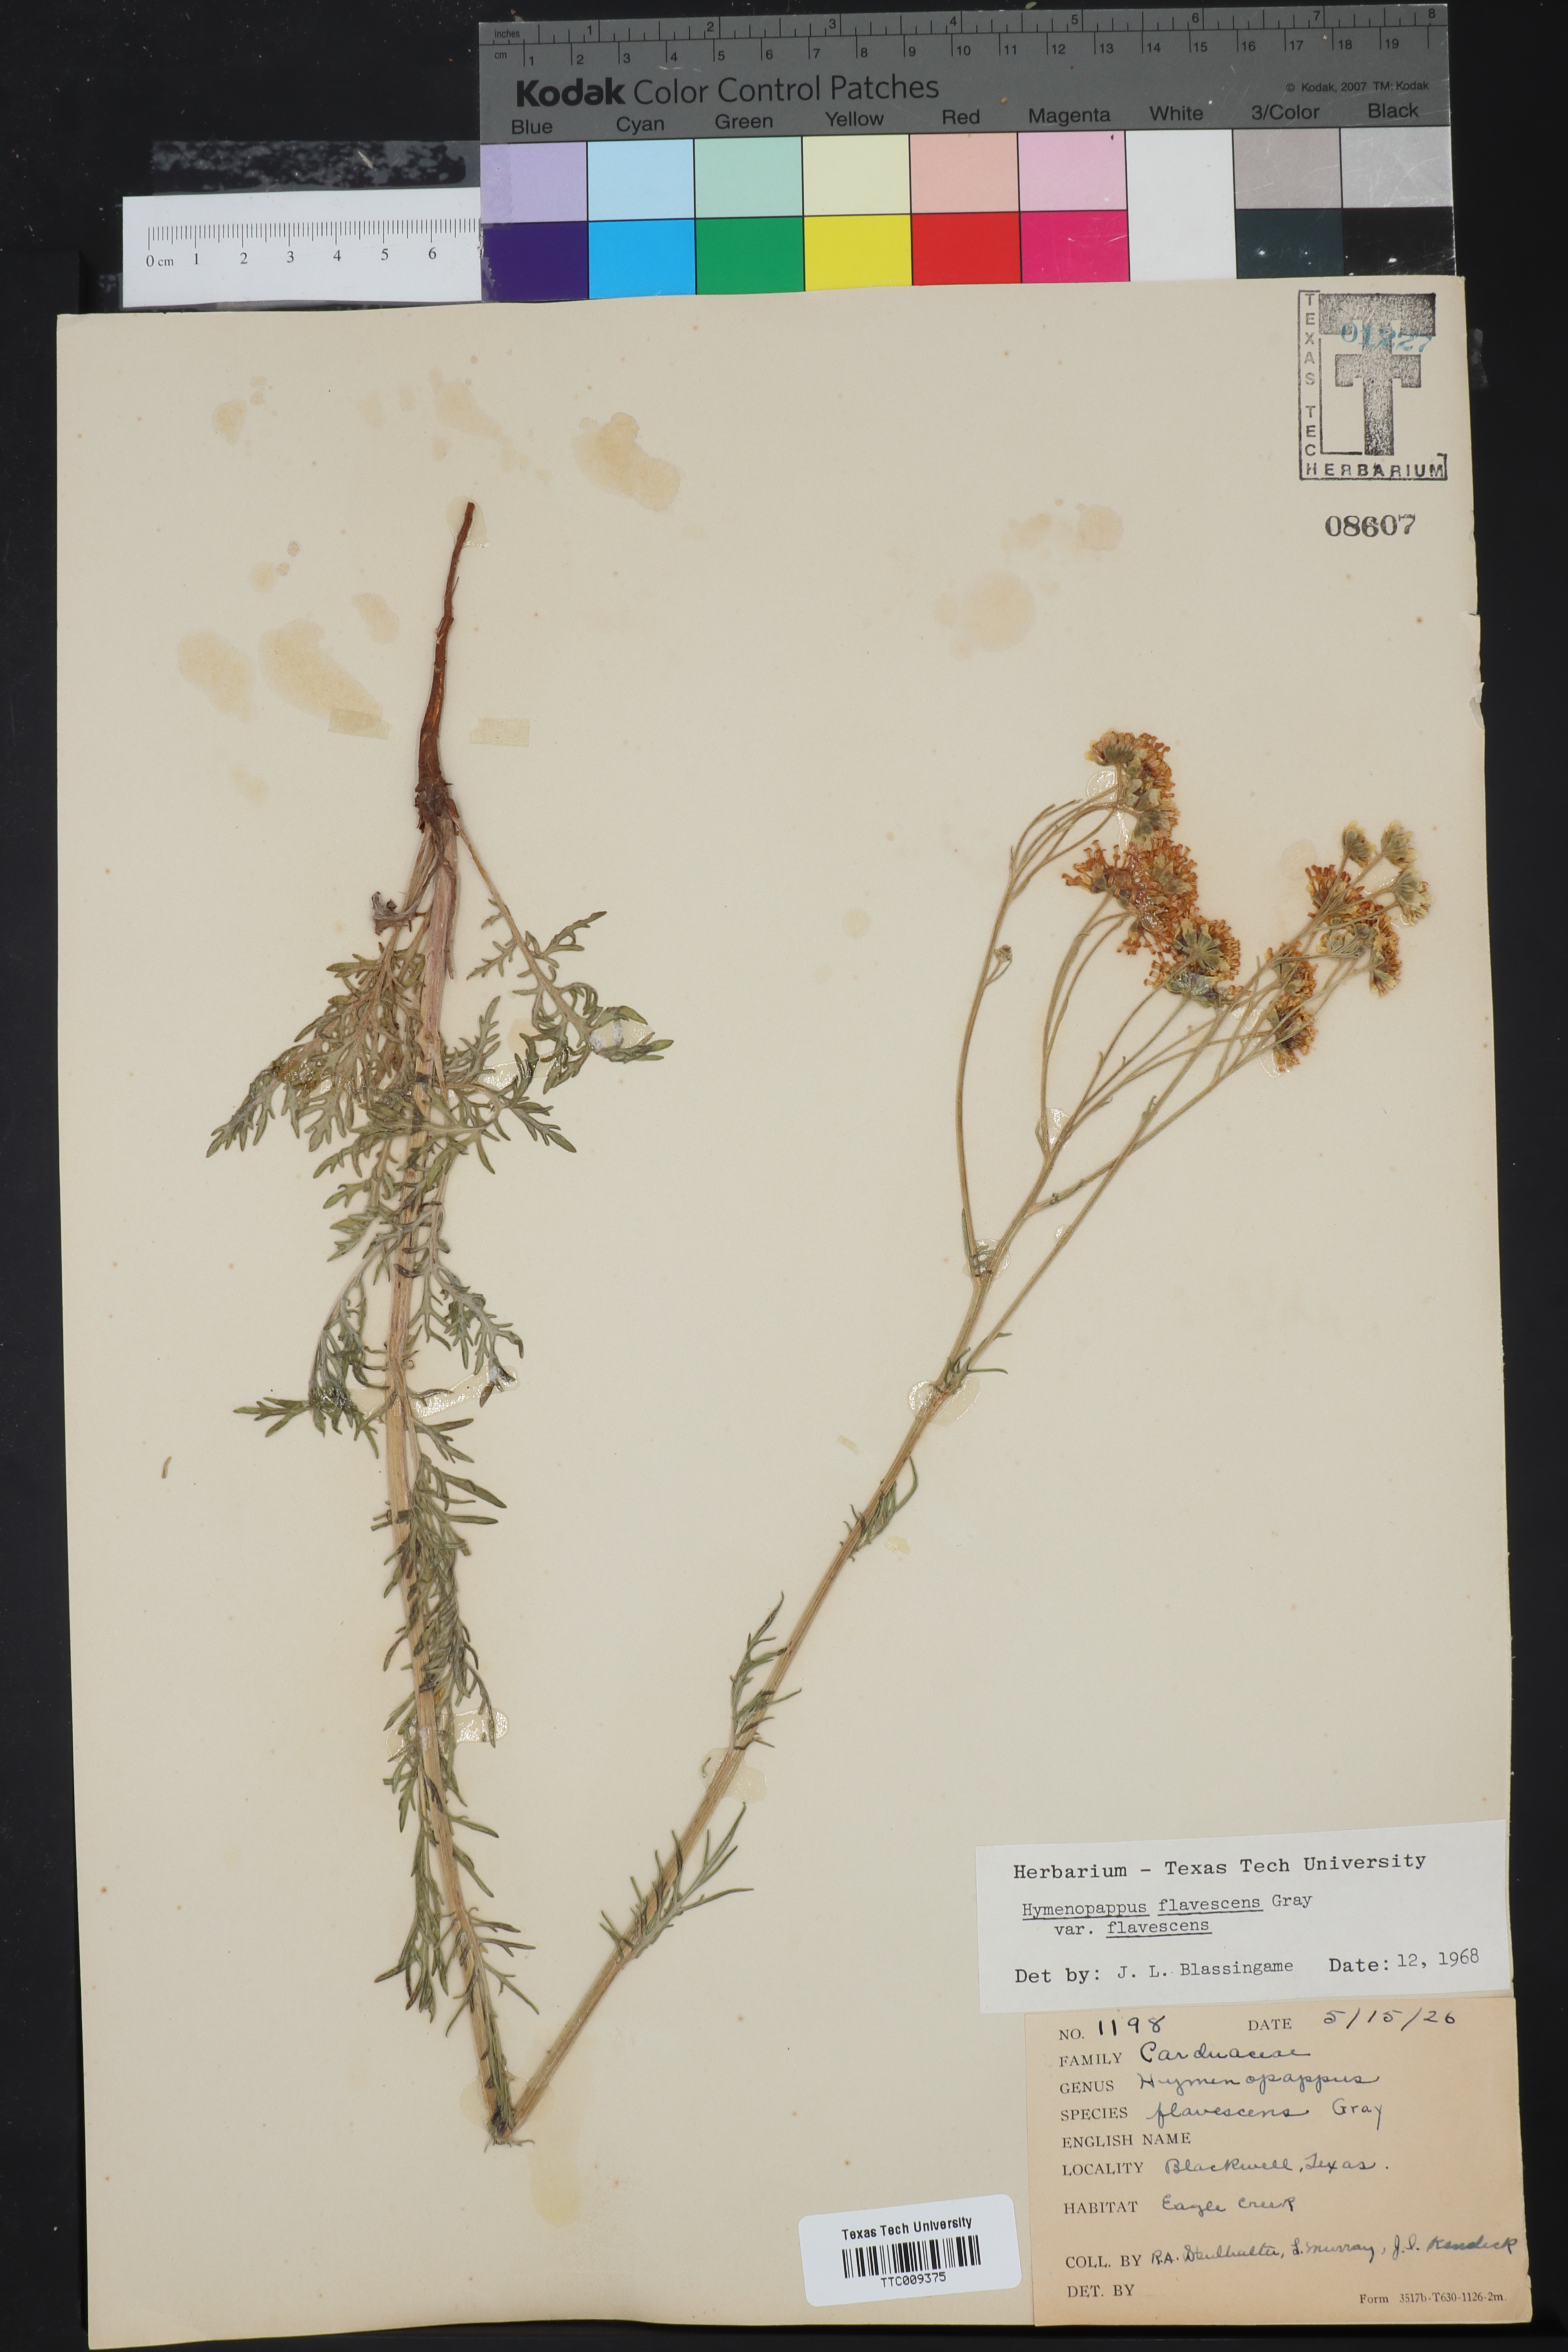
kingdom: Plantae
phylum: Tracheophyta
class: Magnoliopsida
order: Asterales
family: Asteraceae
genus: Hymenopappus
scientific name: Hymenopappus flavescens
